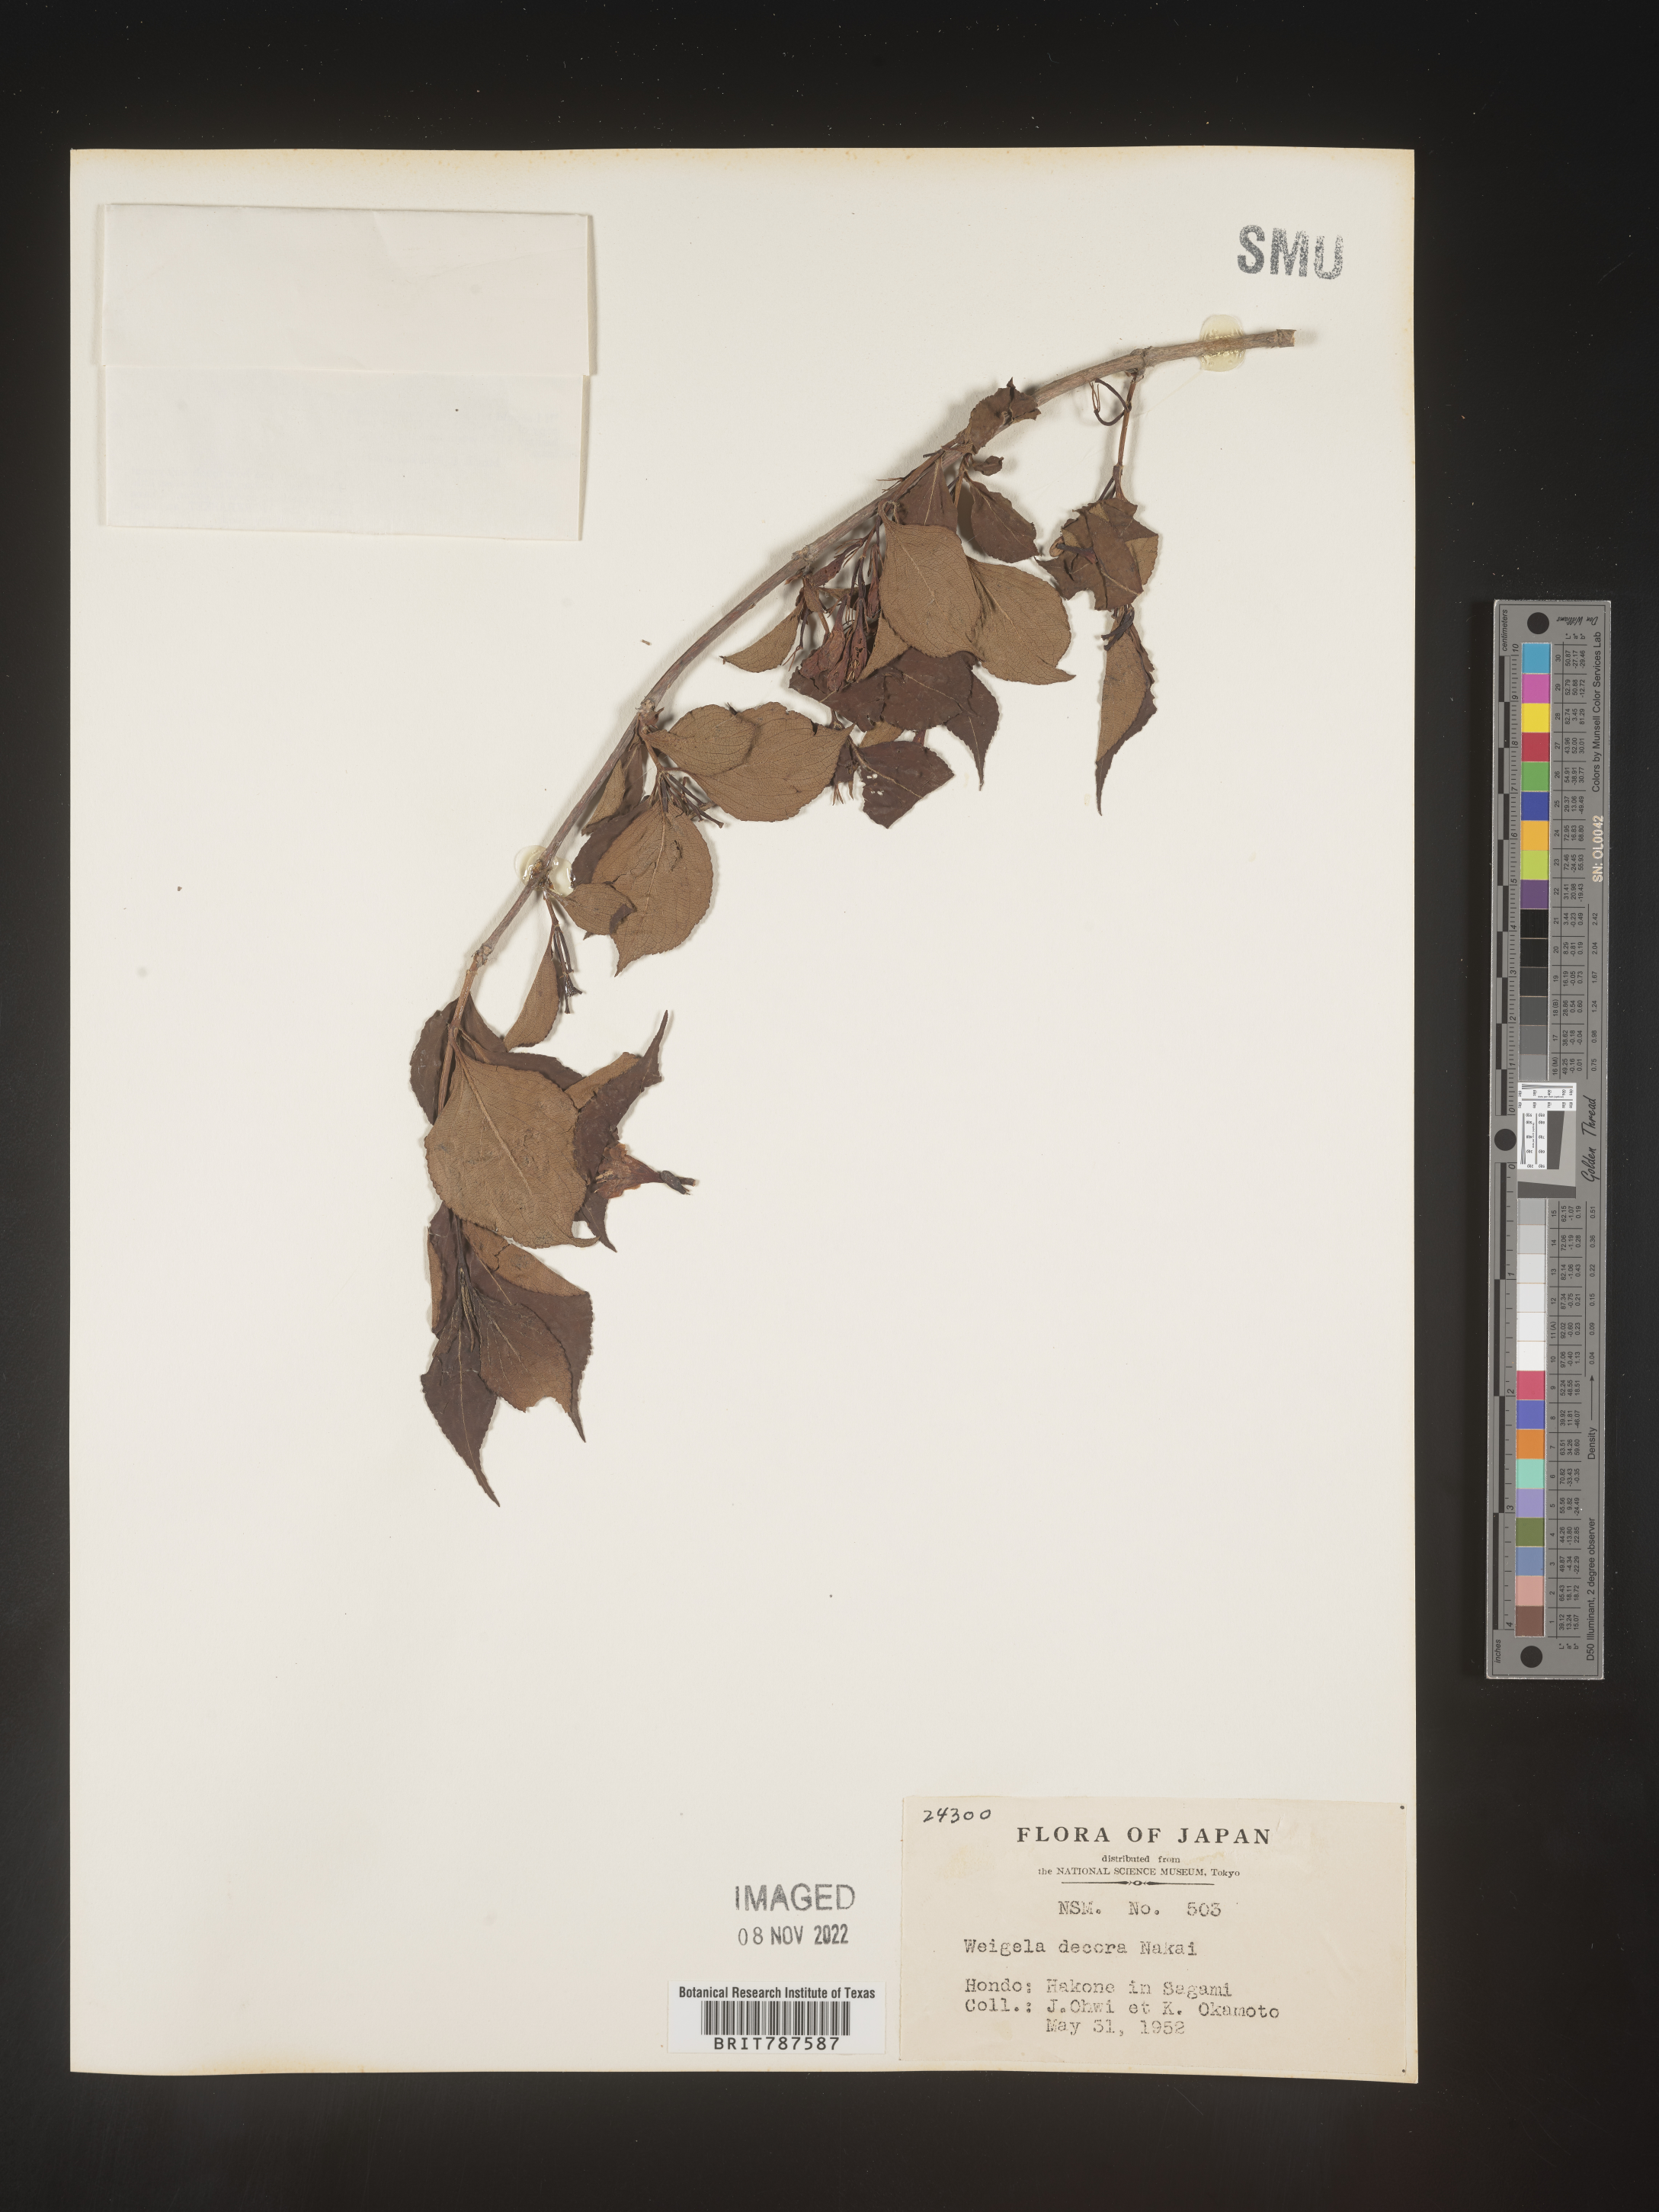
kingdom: Plantae
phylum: Tracheophyta
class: Magnoliopsida
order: Dipsacales
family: Caprifoliaceae
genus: Weigela
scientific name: Weigela
